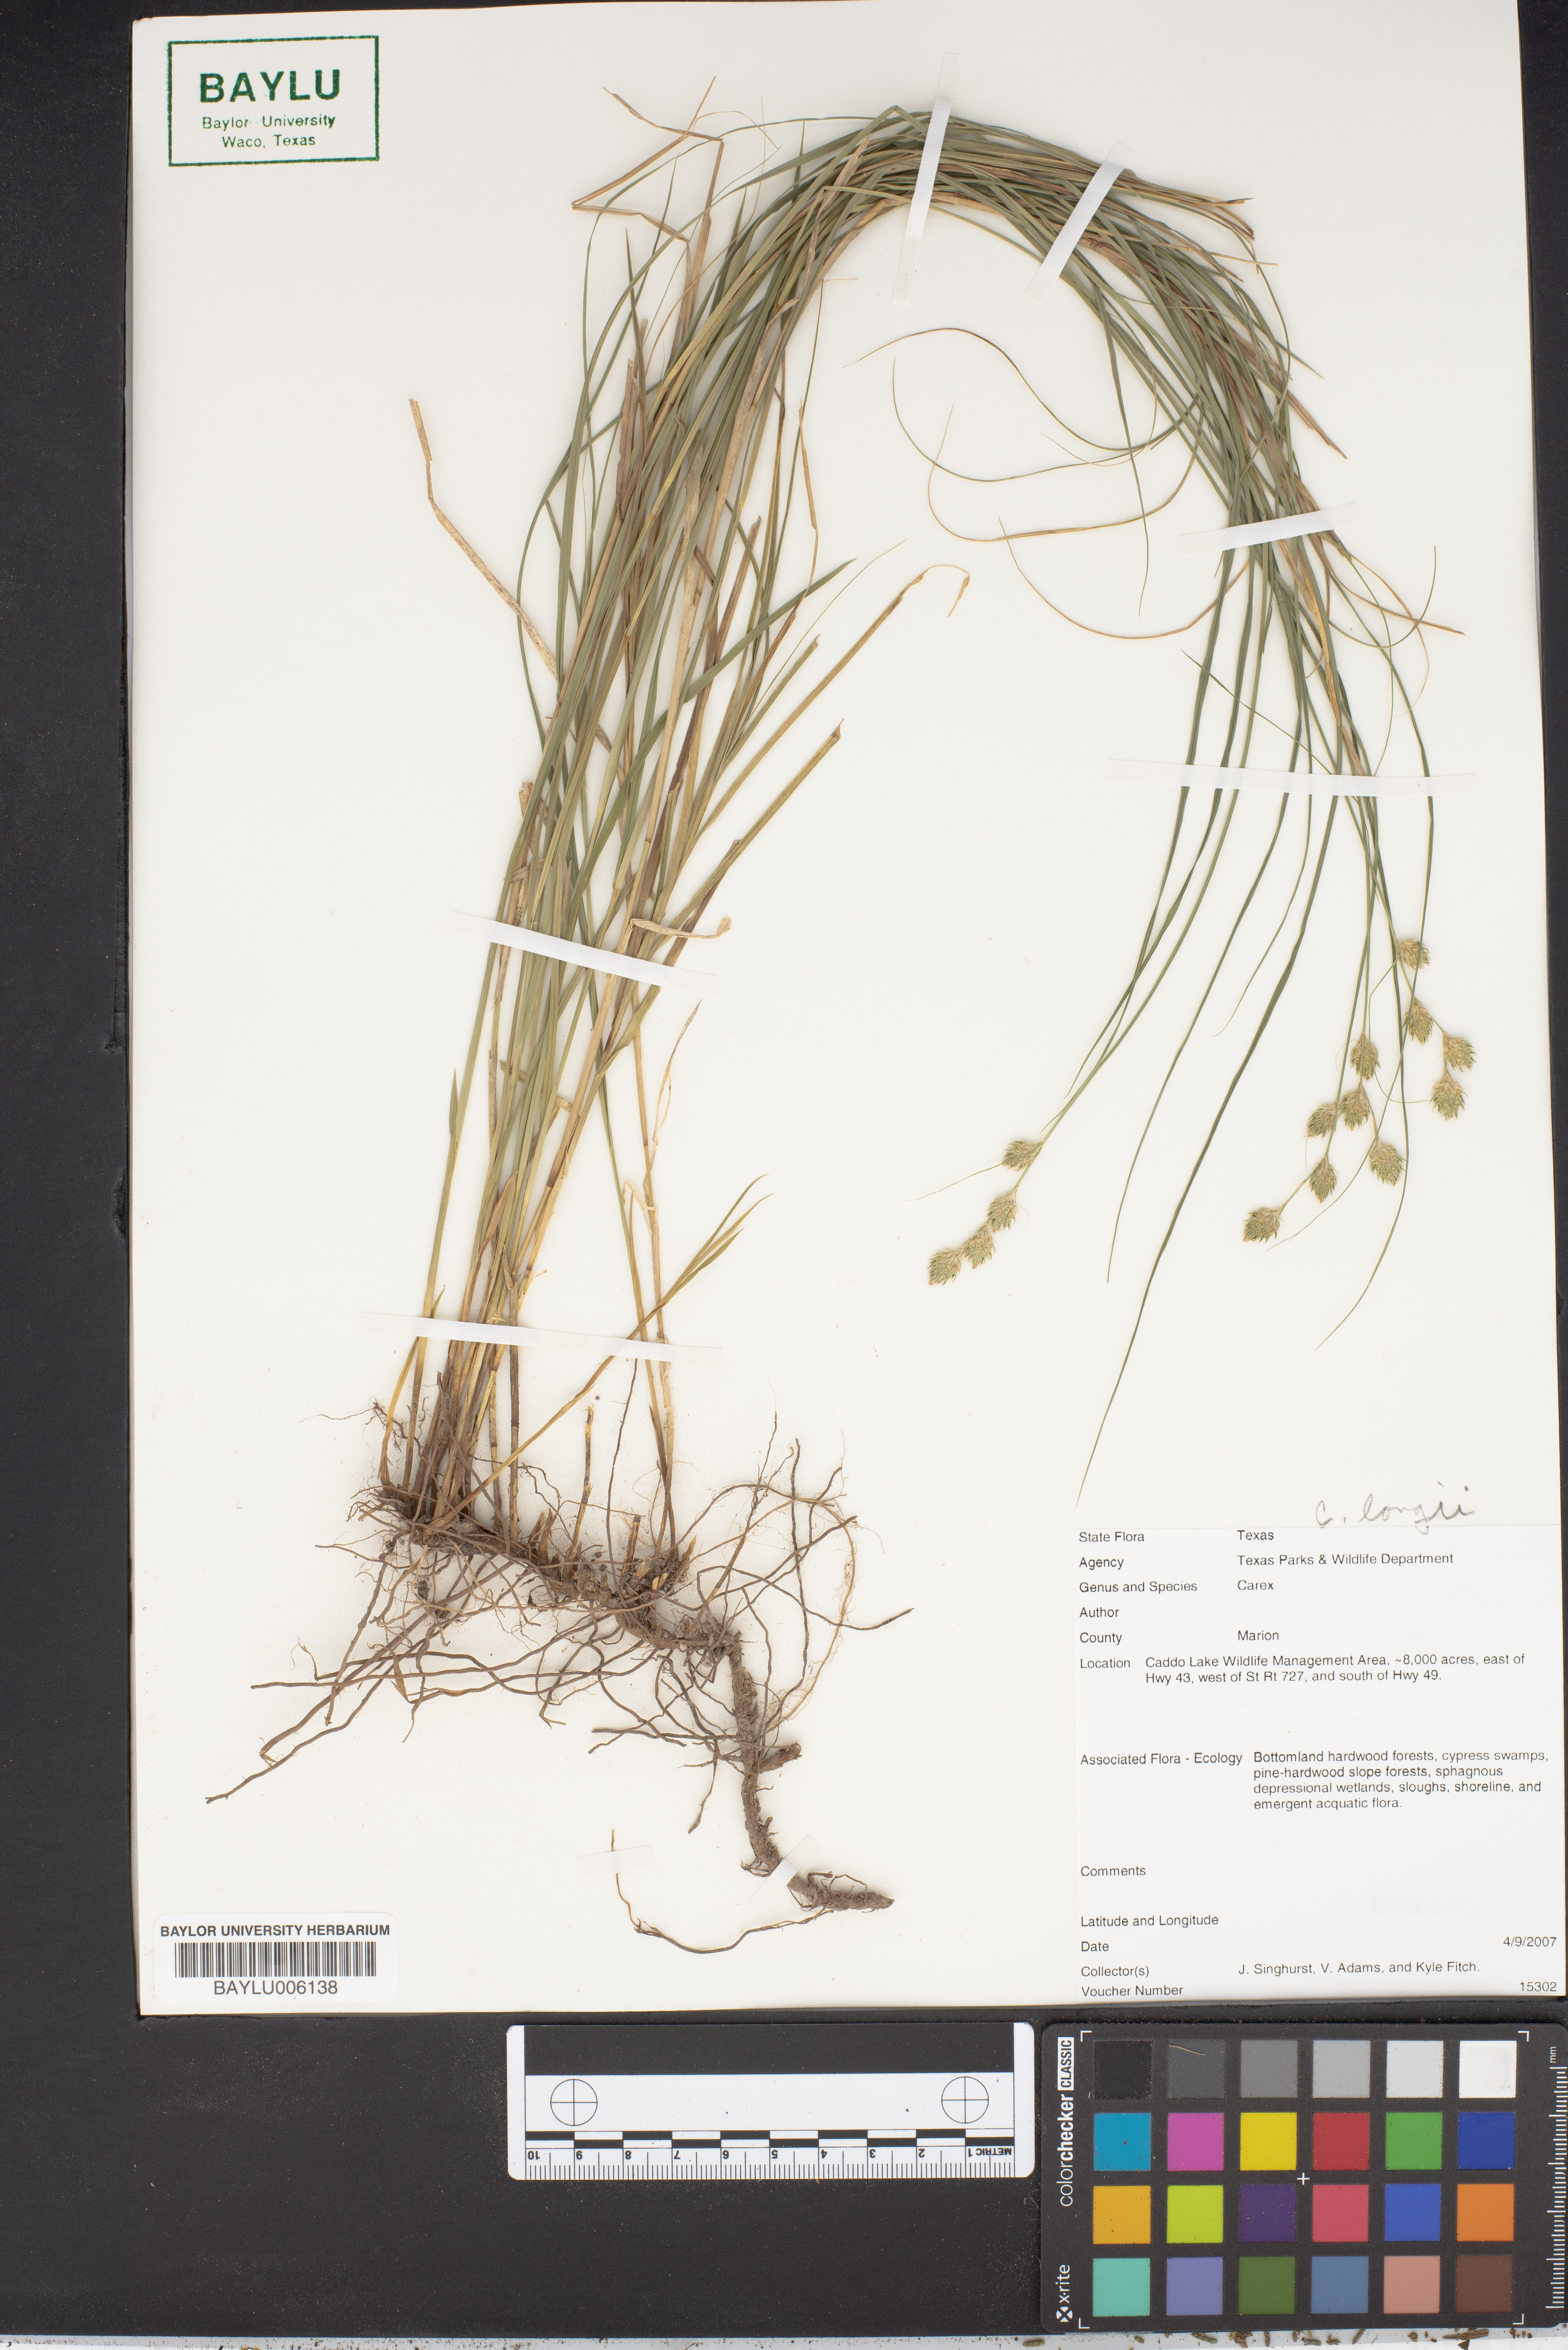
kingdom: Plantae
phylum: Tracheophyta
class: Liliopsida
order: Poales
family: Cyperaceae
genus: Carex
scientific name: Carex longii
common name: Long's sedge
